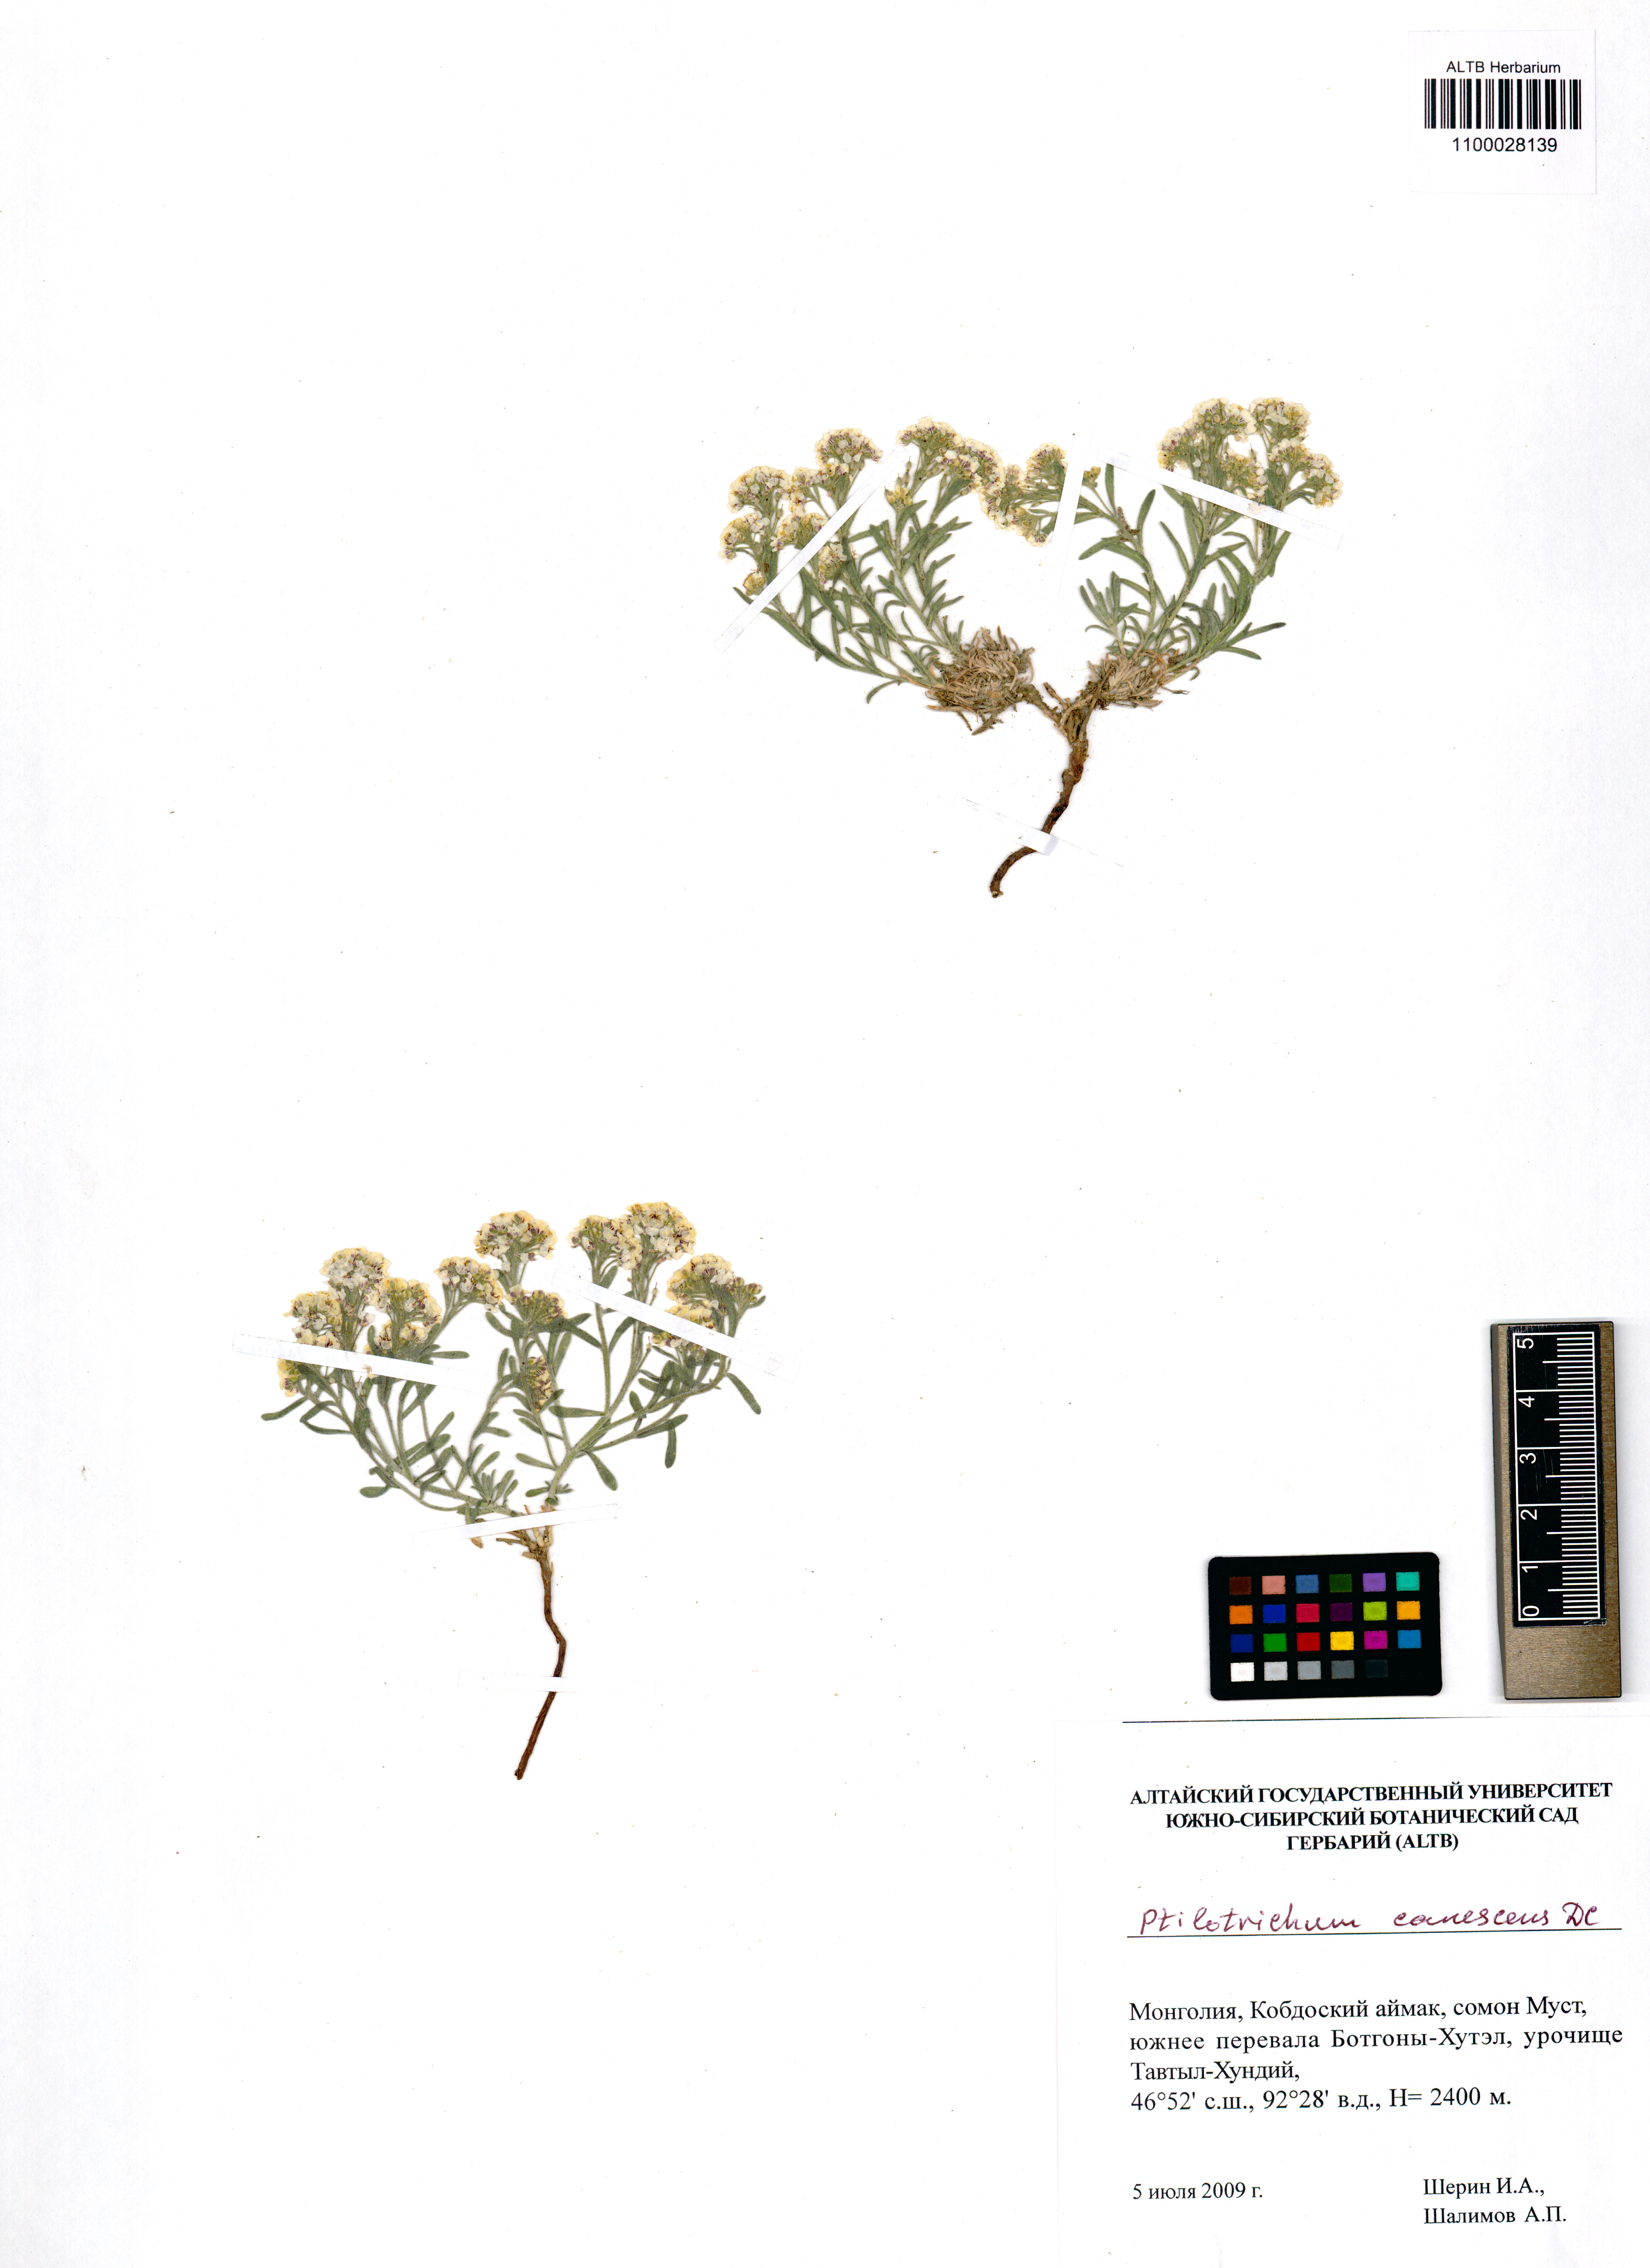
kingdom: Plantae
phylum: Tracheophyta
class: Magnoliopsida
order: Brassicales
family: Brassicaceae
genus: Stevenia
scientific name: Stevenia canescens
